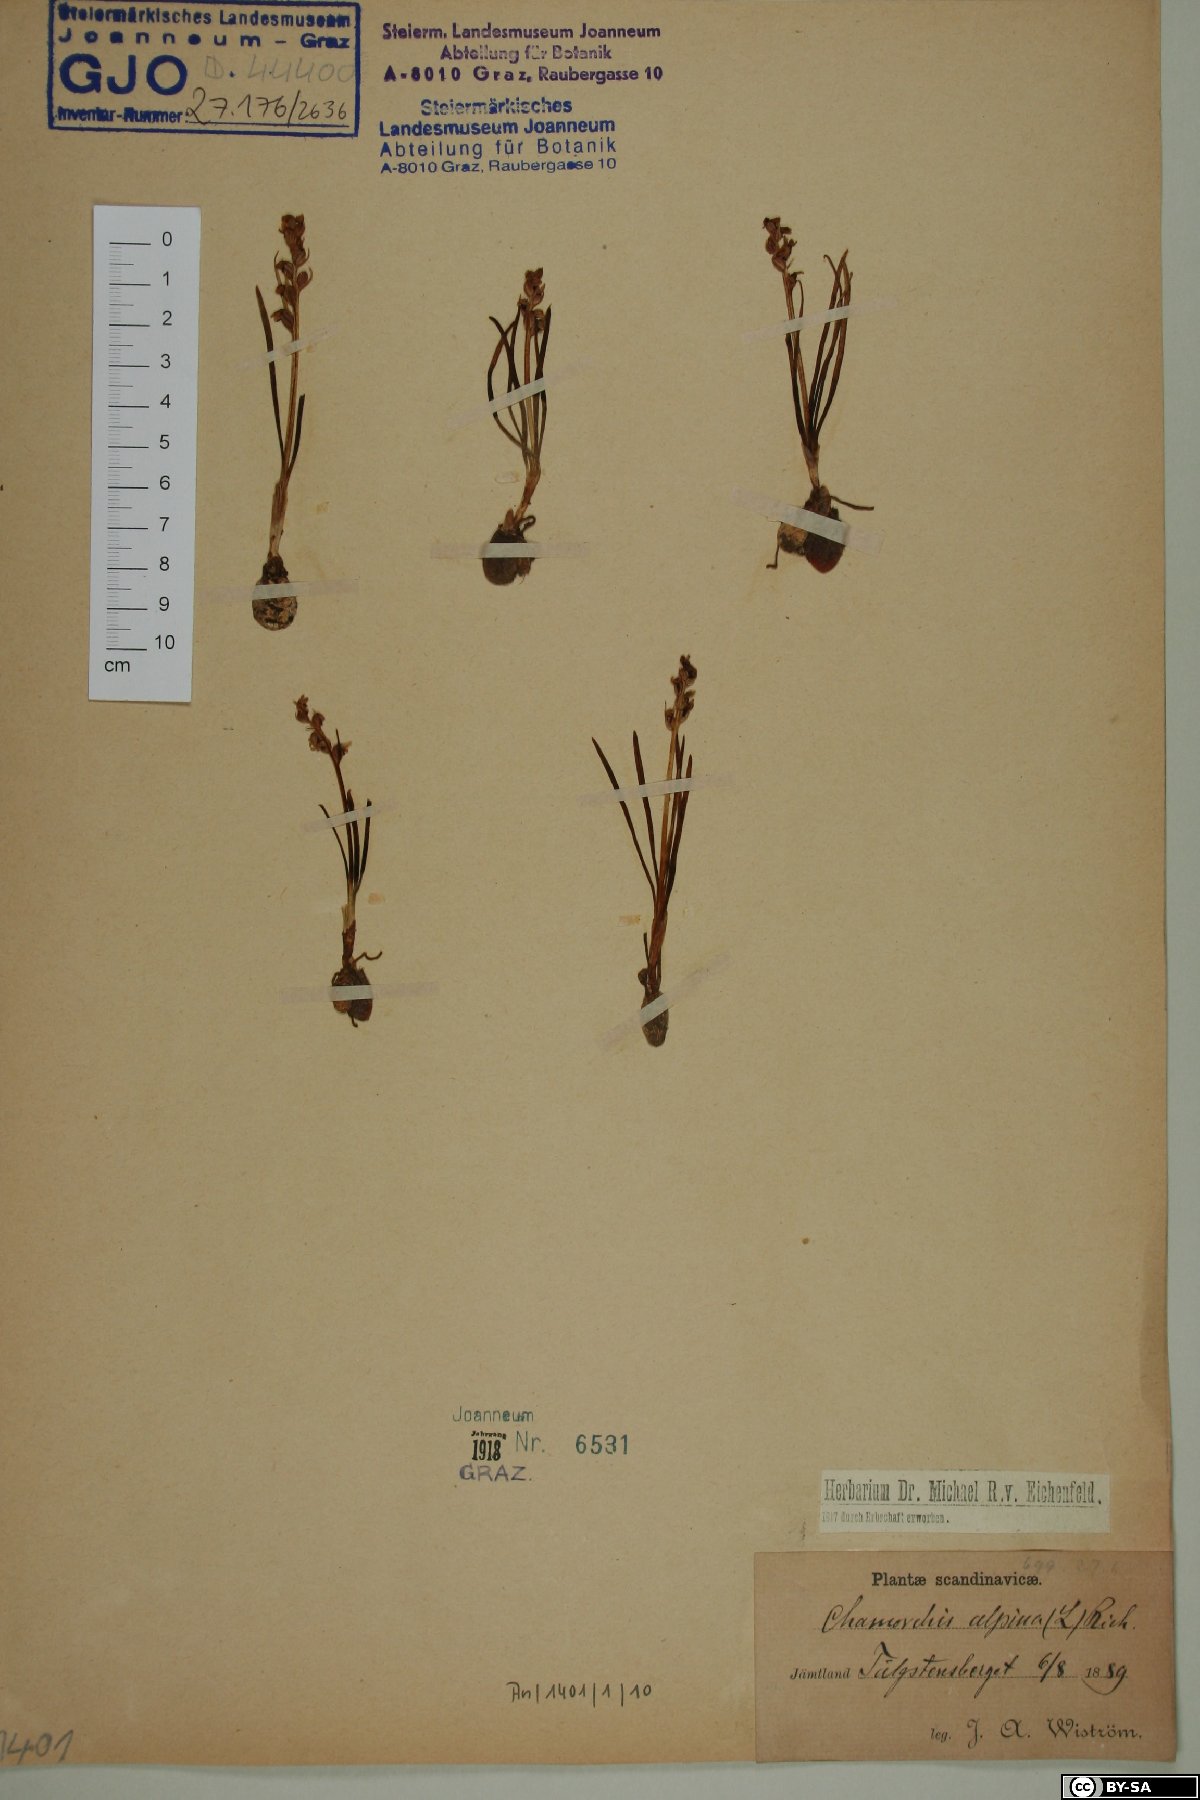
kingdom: Plantae
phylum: Tracheophyta
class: Liliopsida
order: Asparagales
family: Orchidaceae
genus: Chamorchis
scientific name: Chamorchis alpina
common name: Alpine chamorchis
